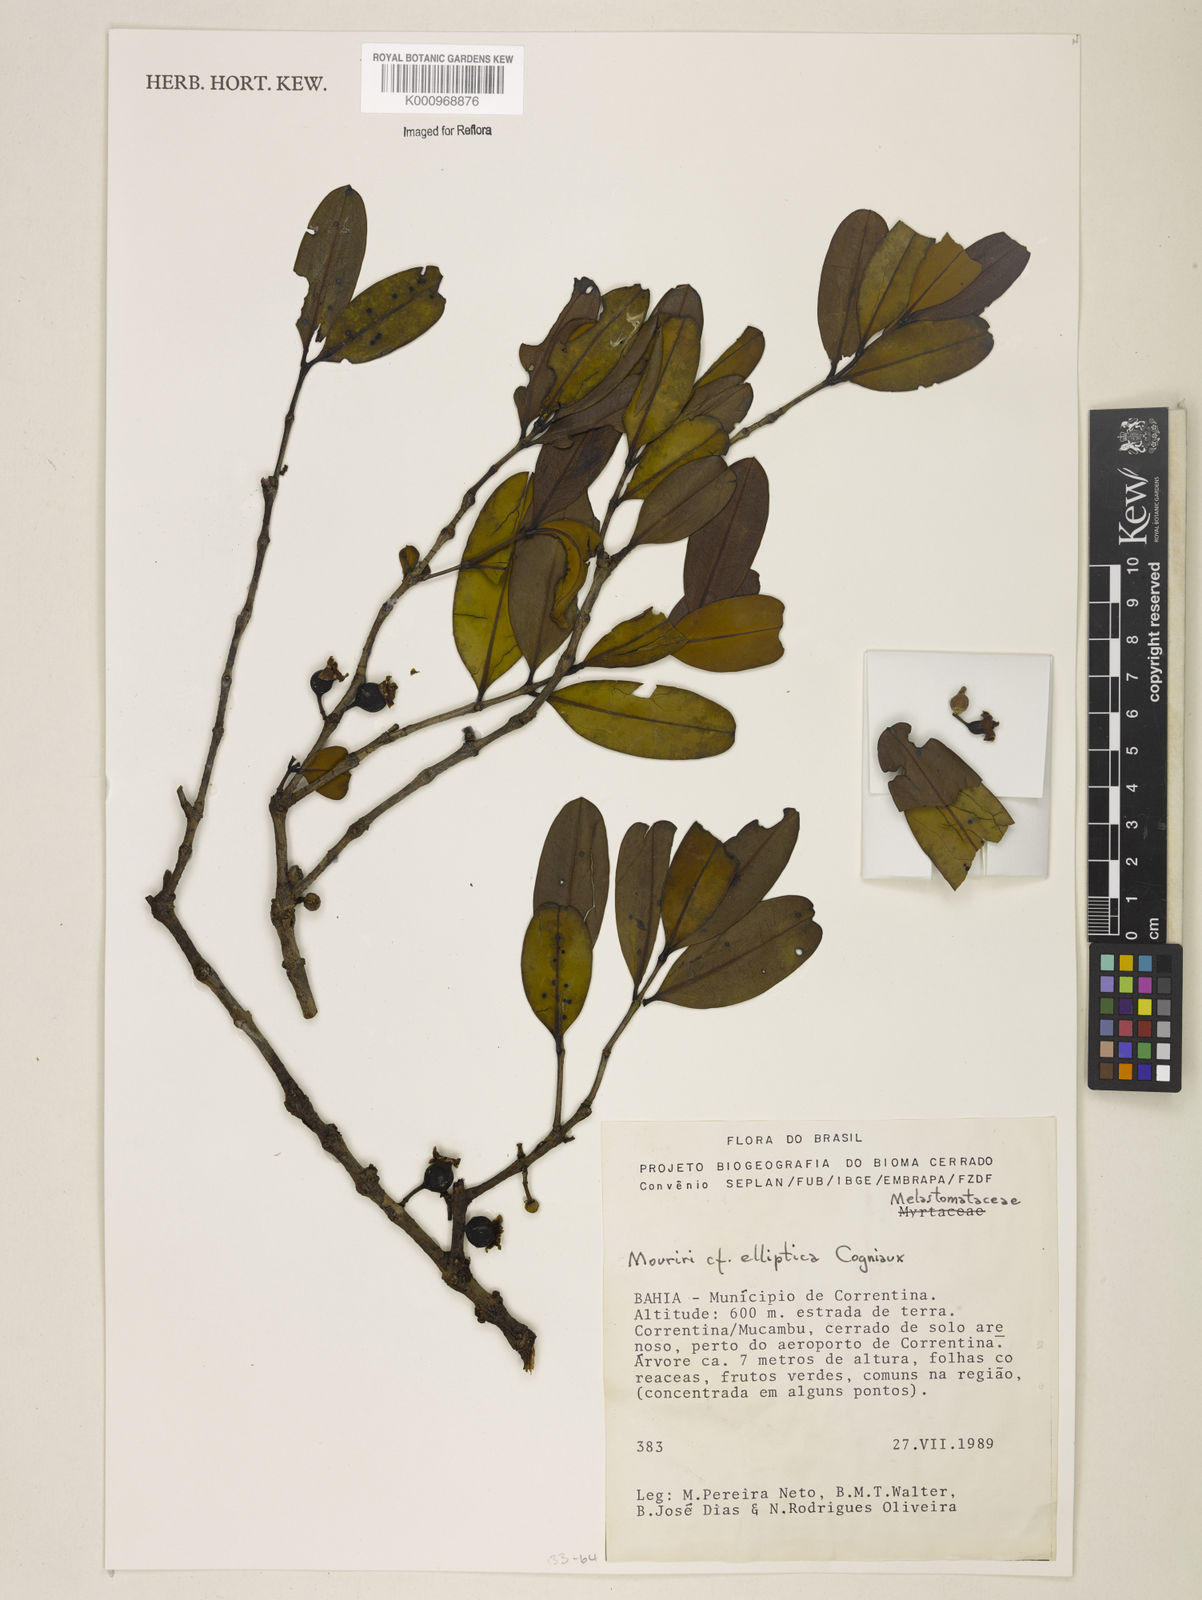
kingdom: Plantae
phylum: Tracheophyta
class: Magnoliopsida
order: Myrtales
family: Melastomataceae
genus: Mouriri
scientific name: Mouriri elliptica
